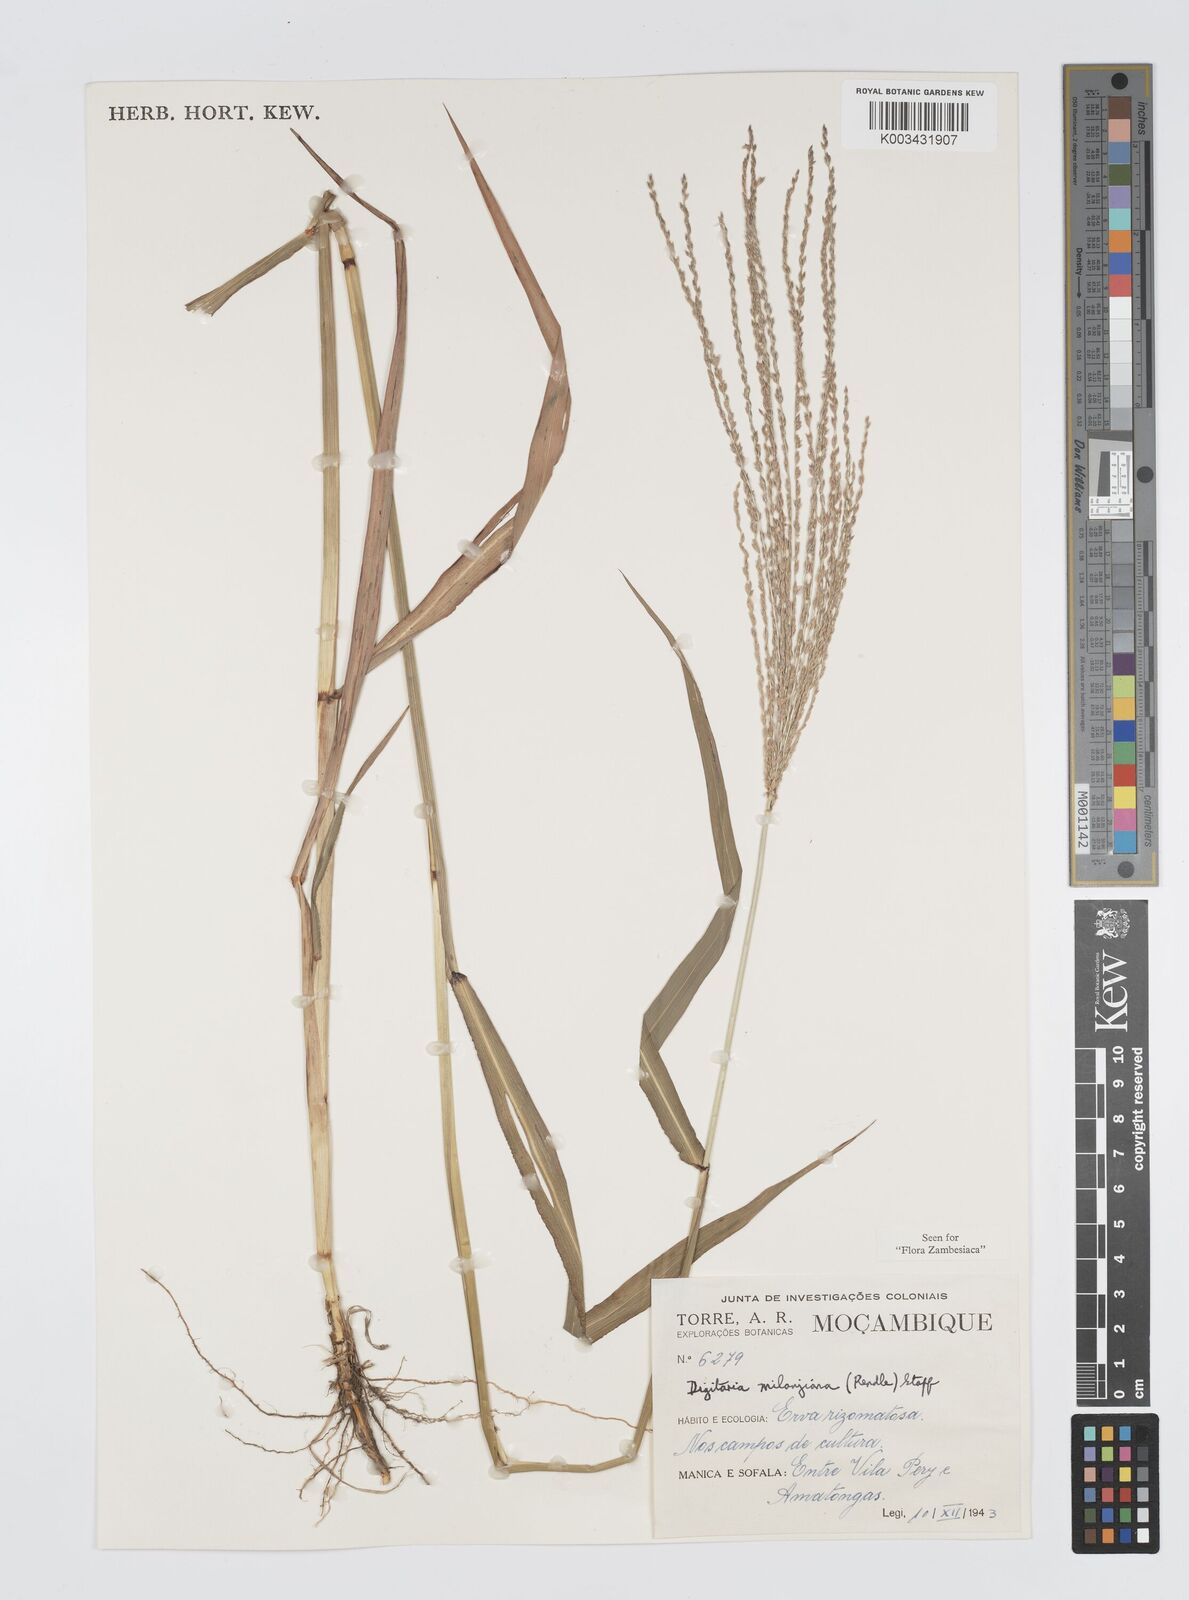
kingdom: Plantae
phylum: Tracheophyta
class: Liliopsida
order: Poales
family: Poaceae
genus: Digitaria
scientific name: Digitaria milanjiana
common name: Madagascar crabgrass
